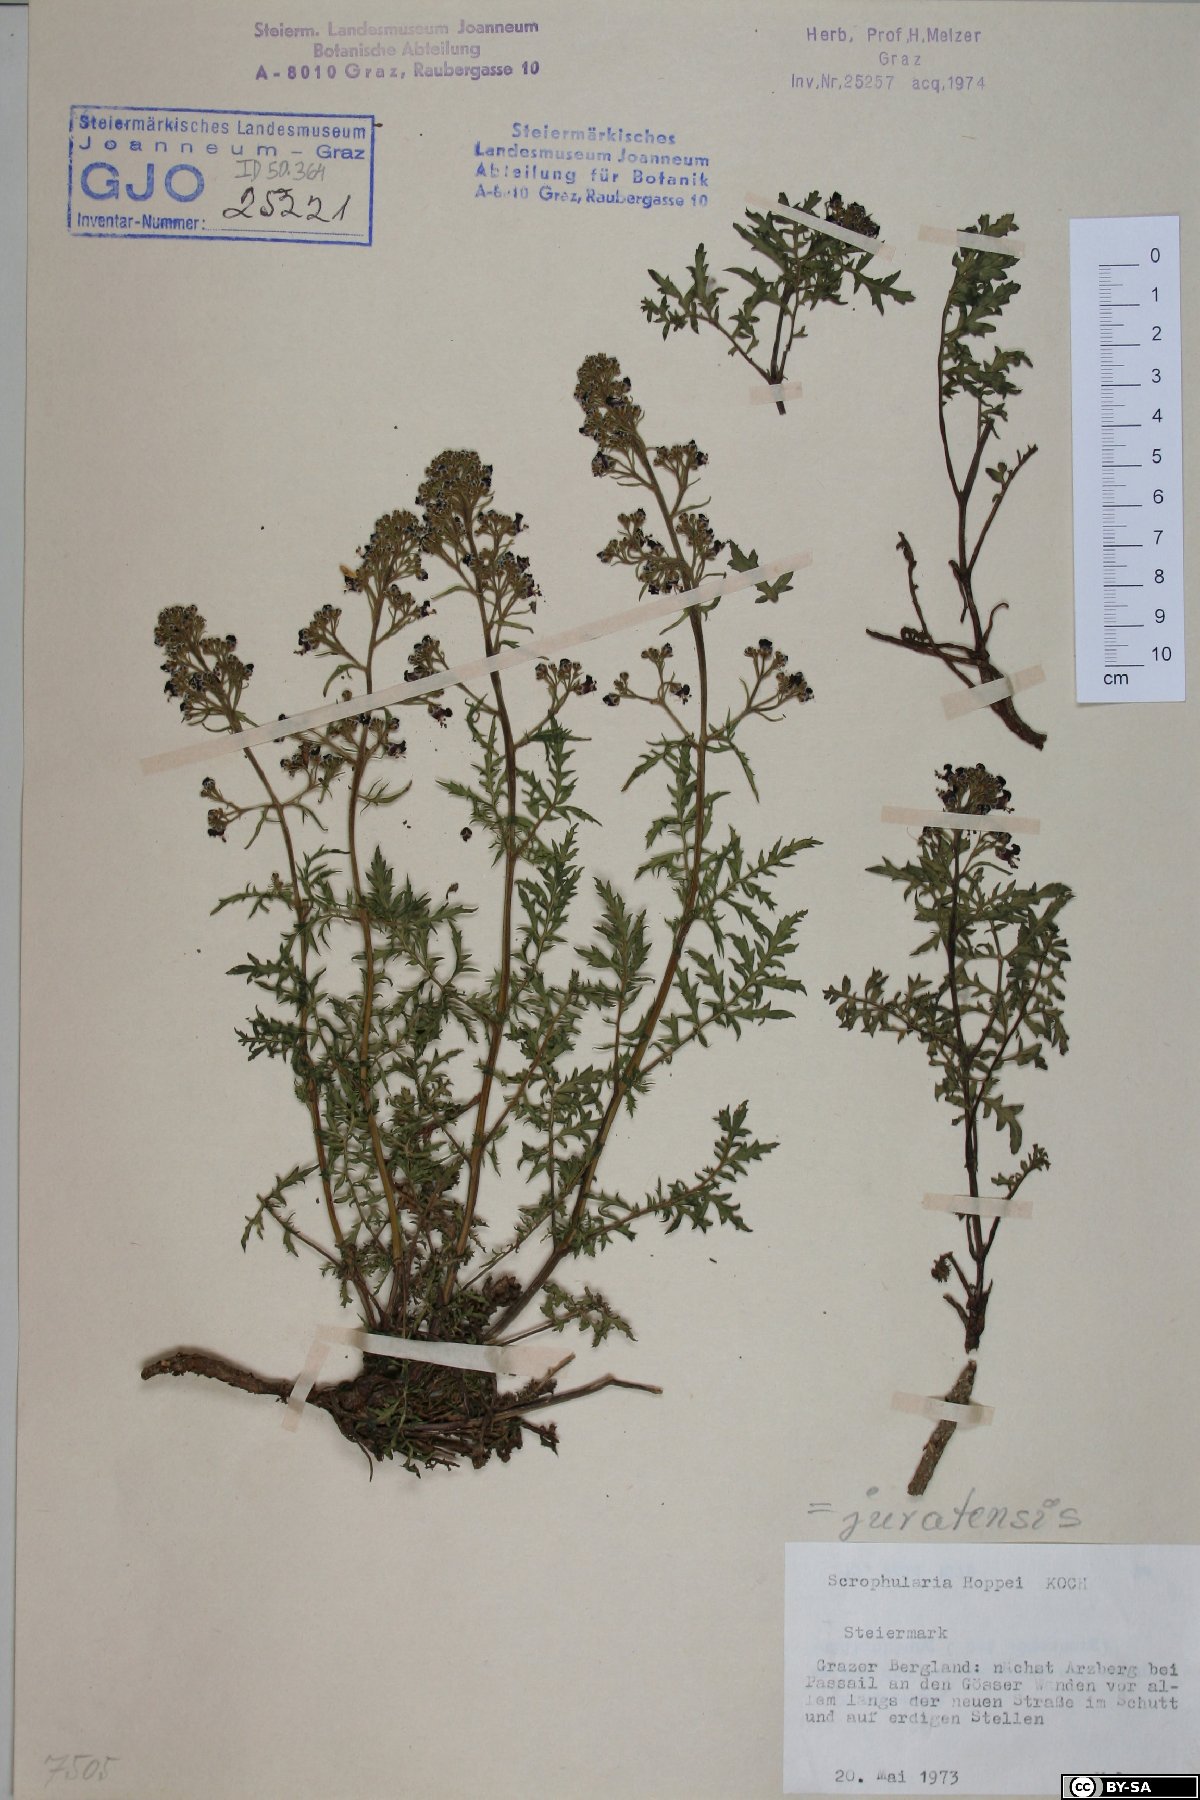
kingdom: Plantae
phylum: Tracheophyta
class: Magnoliopsida
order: Lamiales
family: Scrophulariaceae
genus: Scrophularia
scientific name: Scrophularia canina
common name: French figwort
